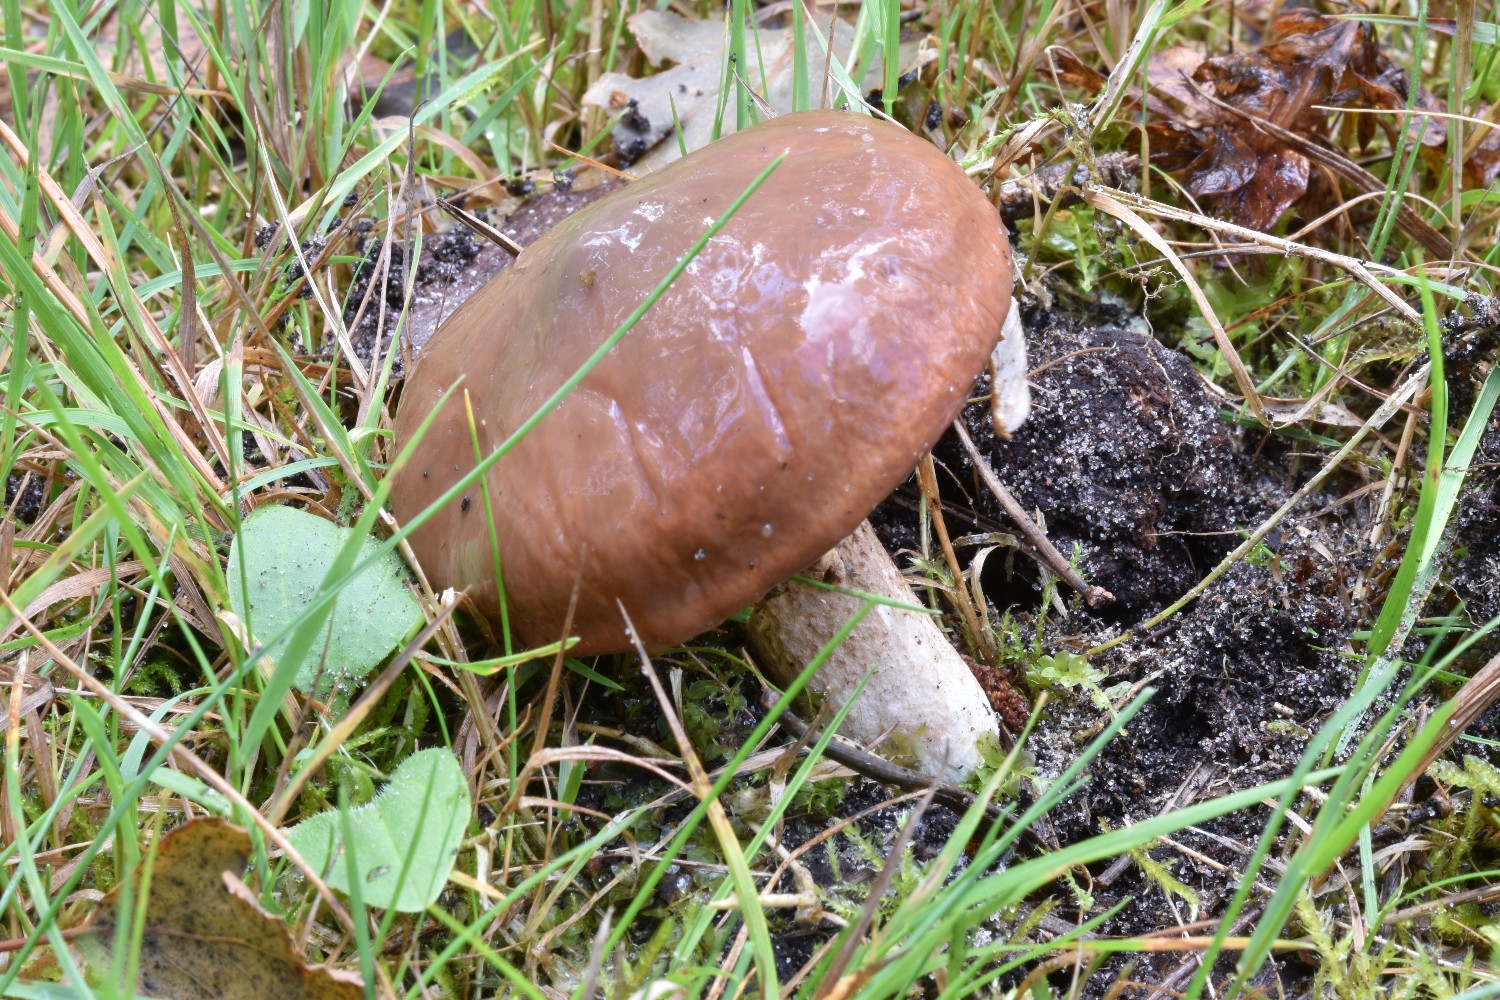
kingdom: Fungi
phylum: Basidiomycota
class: Agaricomycetes
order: Boletales
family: Suillaceae
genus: Suillus
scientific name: Suillus luteus
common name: brungul slimrørhat
